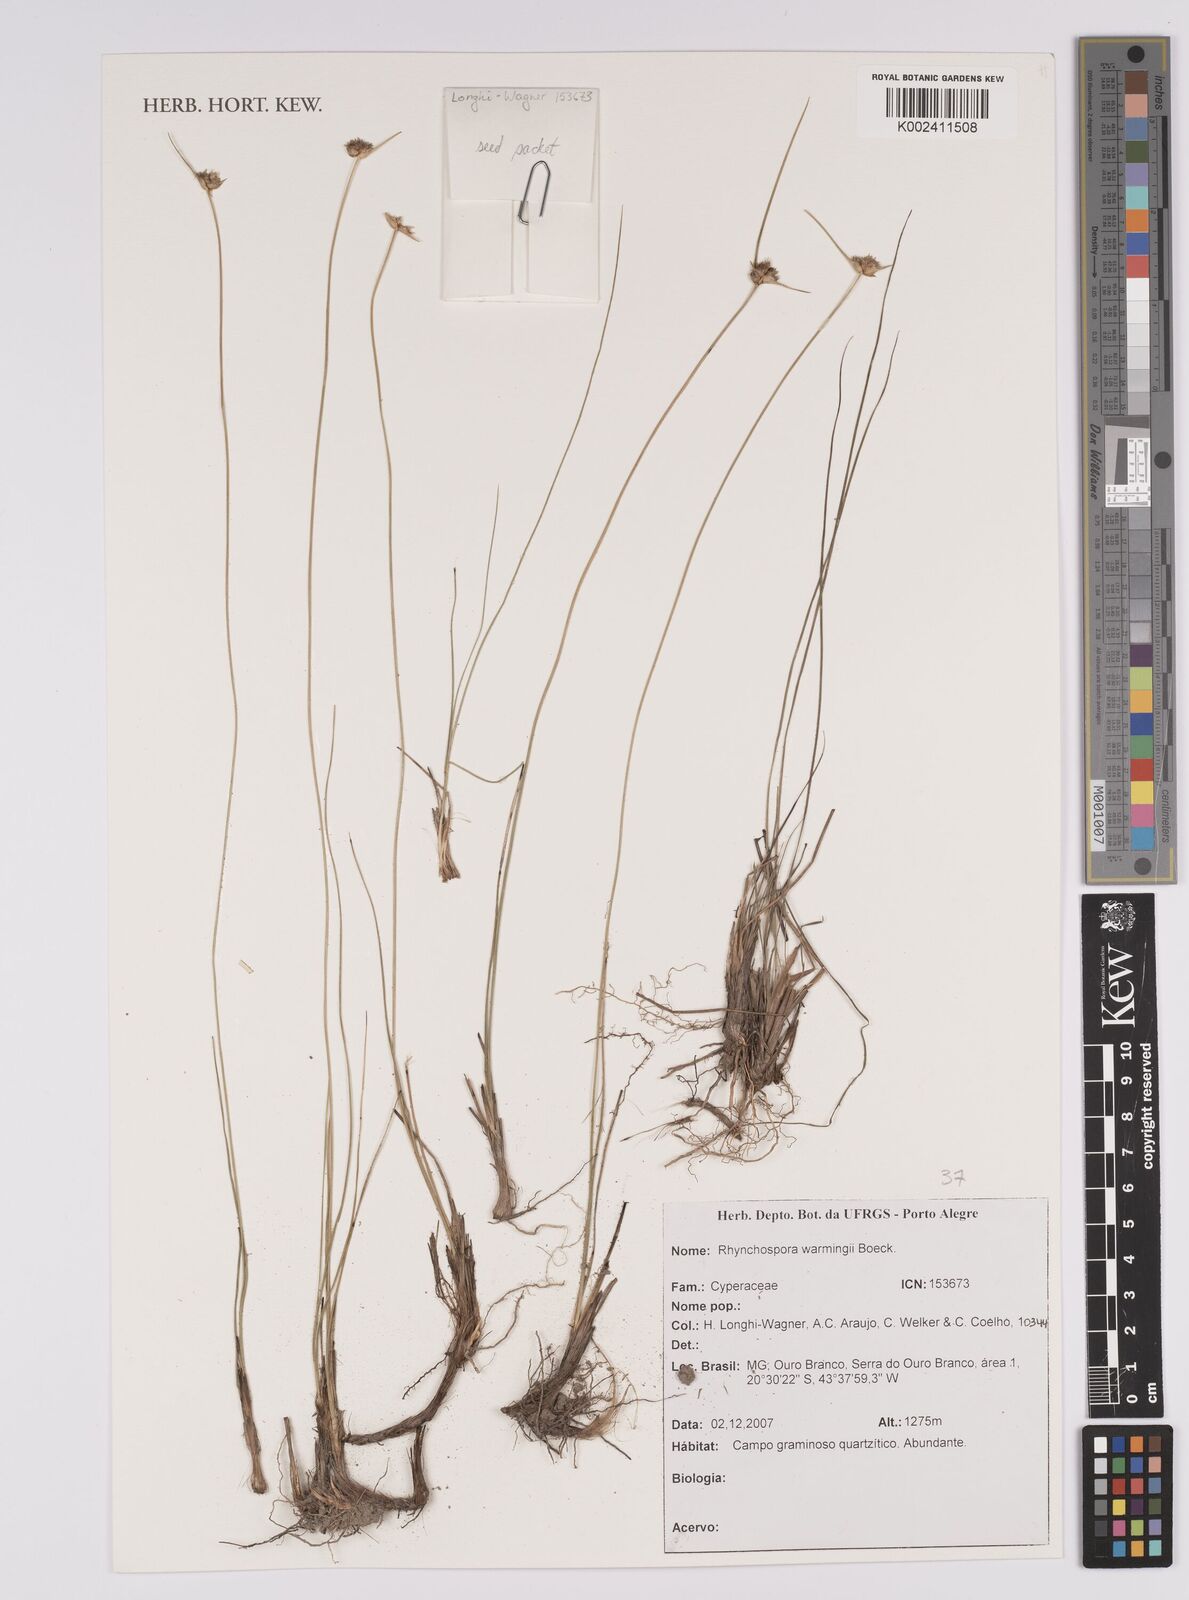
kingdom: Plantae
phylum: Tracheophyta
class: Liliopsida
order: Poales
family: Cyperaceae
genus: Rhynchospora
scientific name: Rhynchospora warmingii
